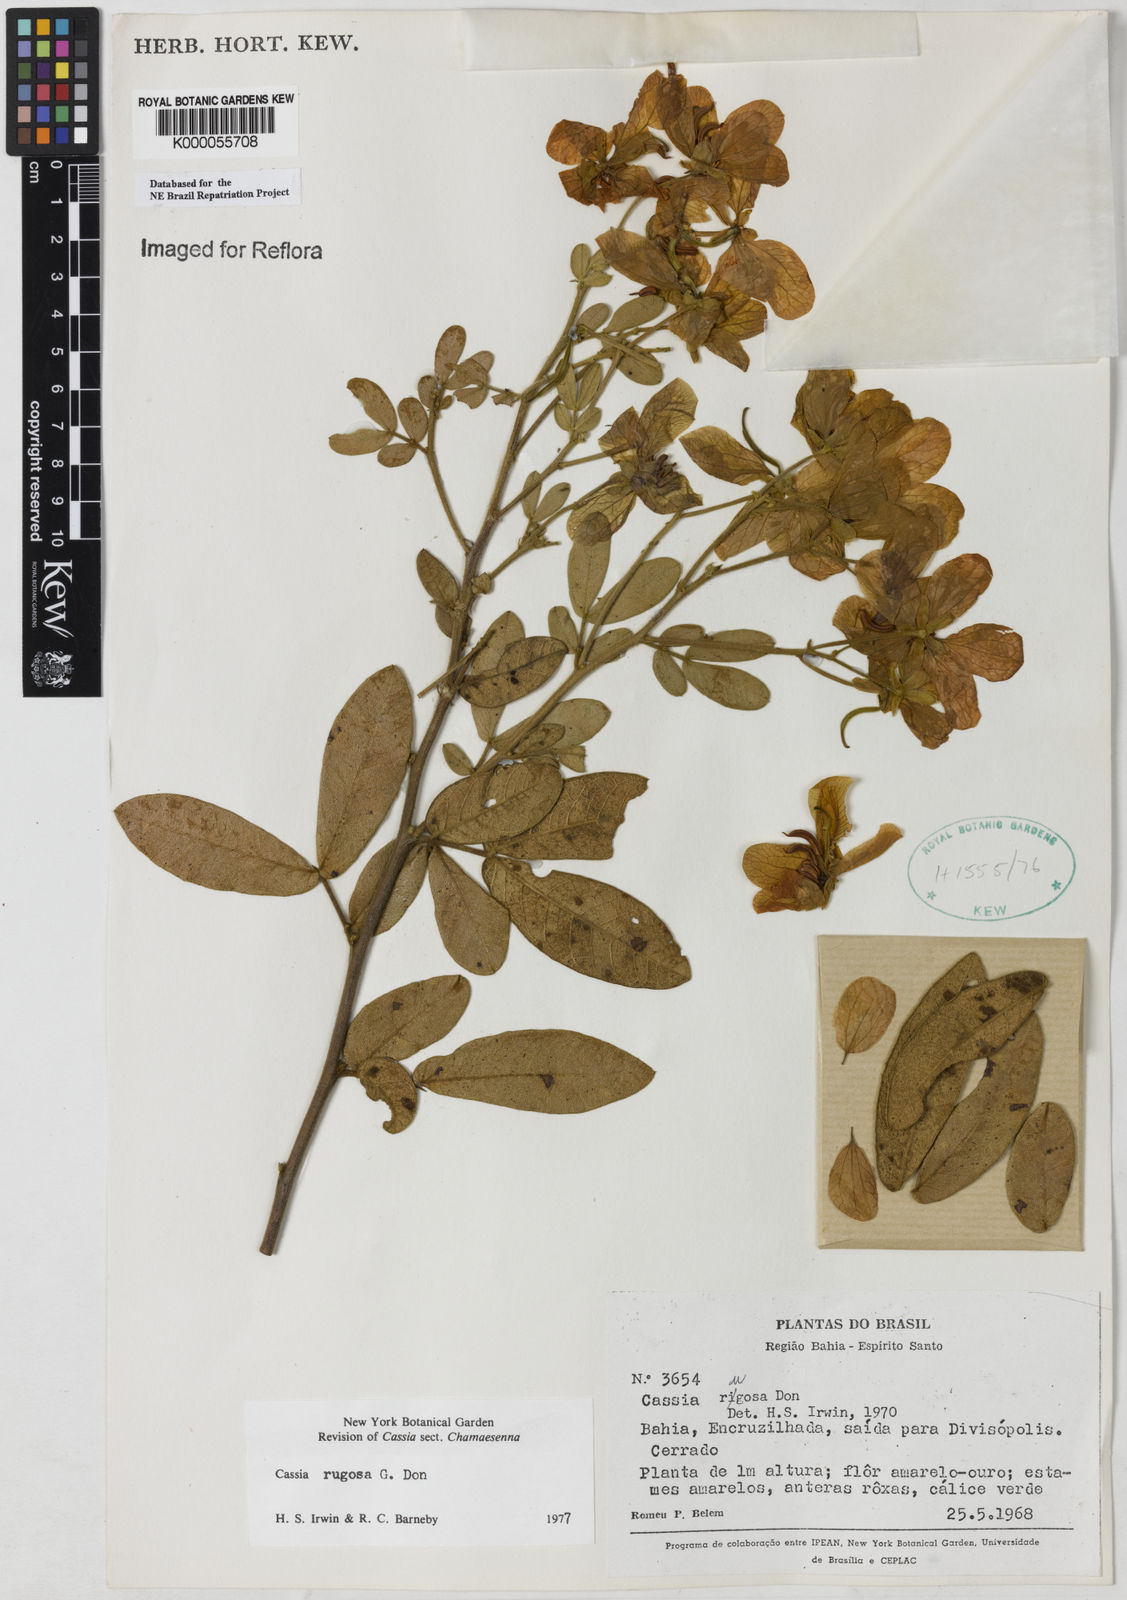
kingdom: Plantae
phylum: Tracheophyta
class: Magnoliopsida
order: Fabales
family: Fabaceae
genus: Senna
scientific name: Senna rugosa
